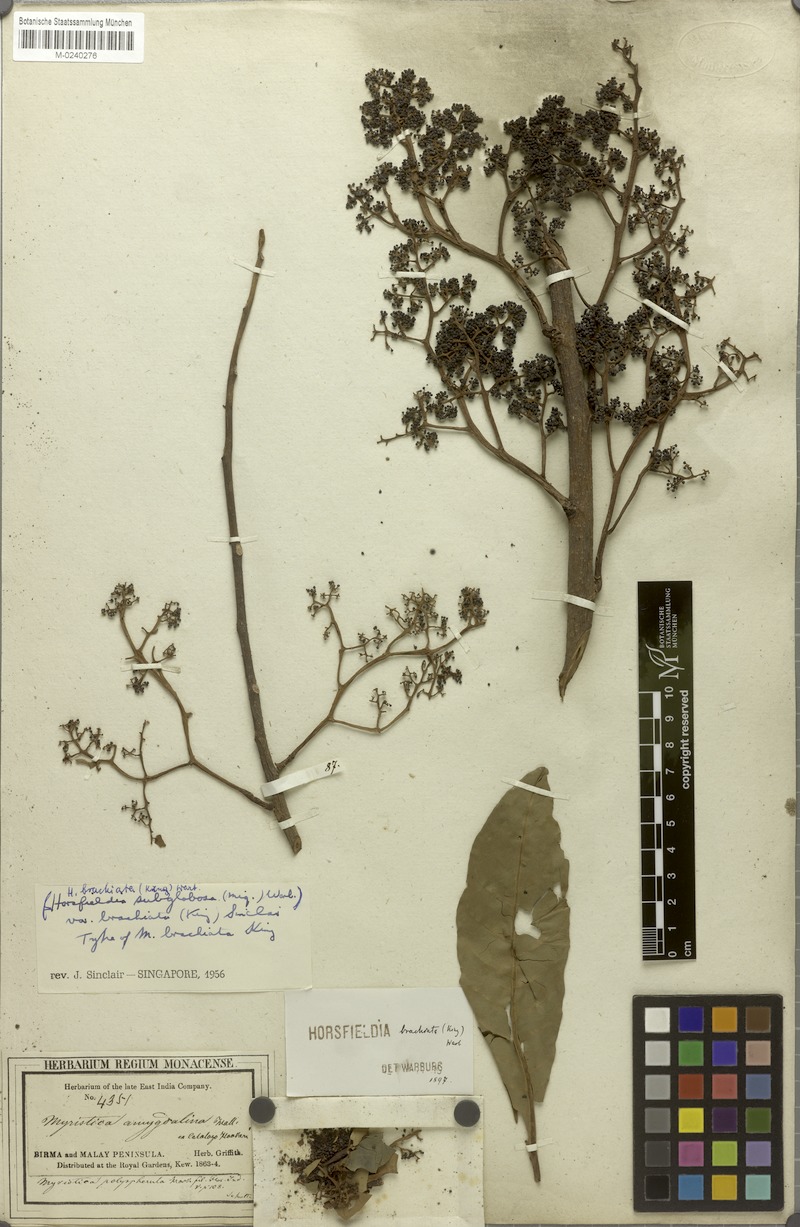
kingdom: Plantae
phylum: Tracheophyta
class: Magnoliopsida
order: Magnoliales
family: Myristicaceae
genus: Horsfieldia
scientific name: Horsfieldia brachiata
